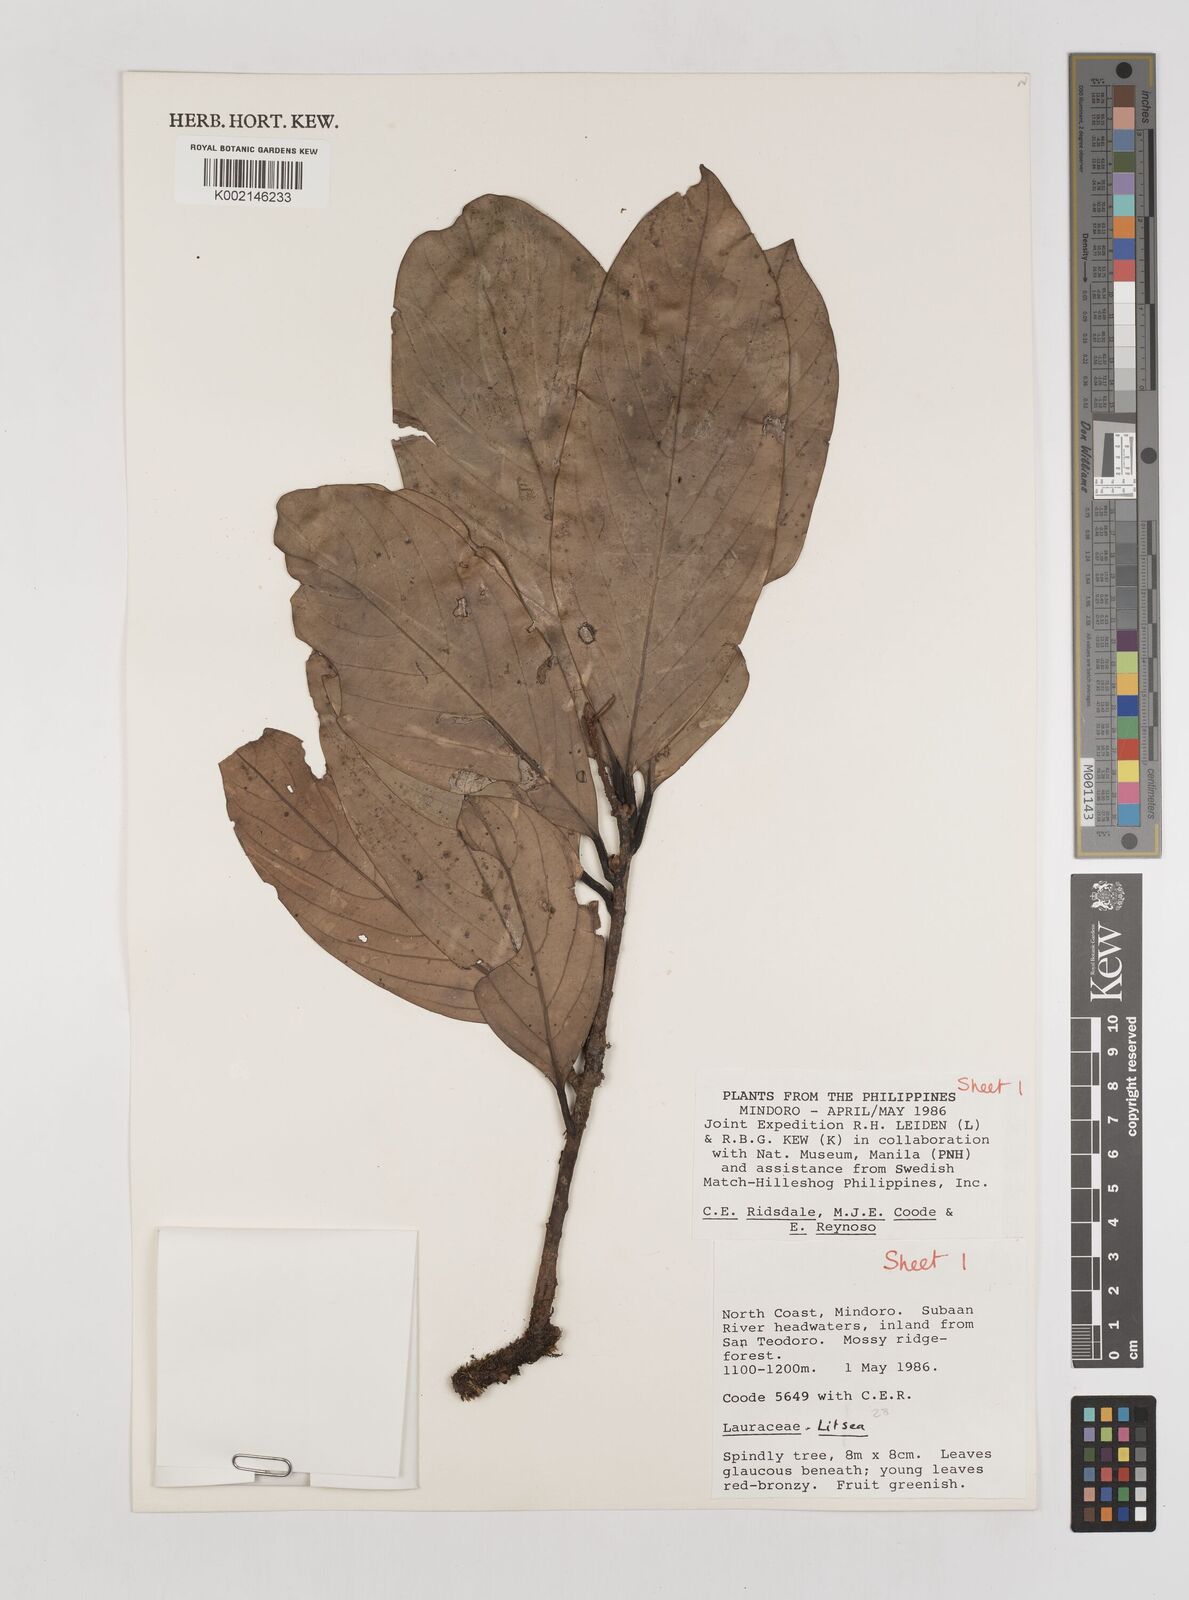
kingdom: Plantae
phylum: Tracheophyta
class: Magnoliopsida
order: Laurales
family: Lauraceae
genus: Litsea
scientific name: Litsea
